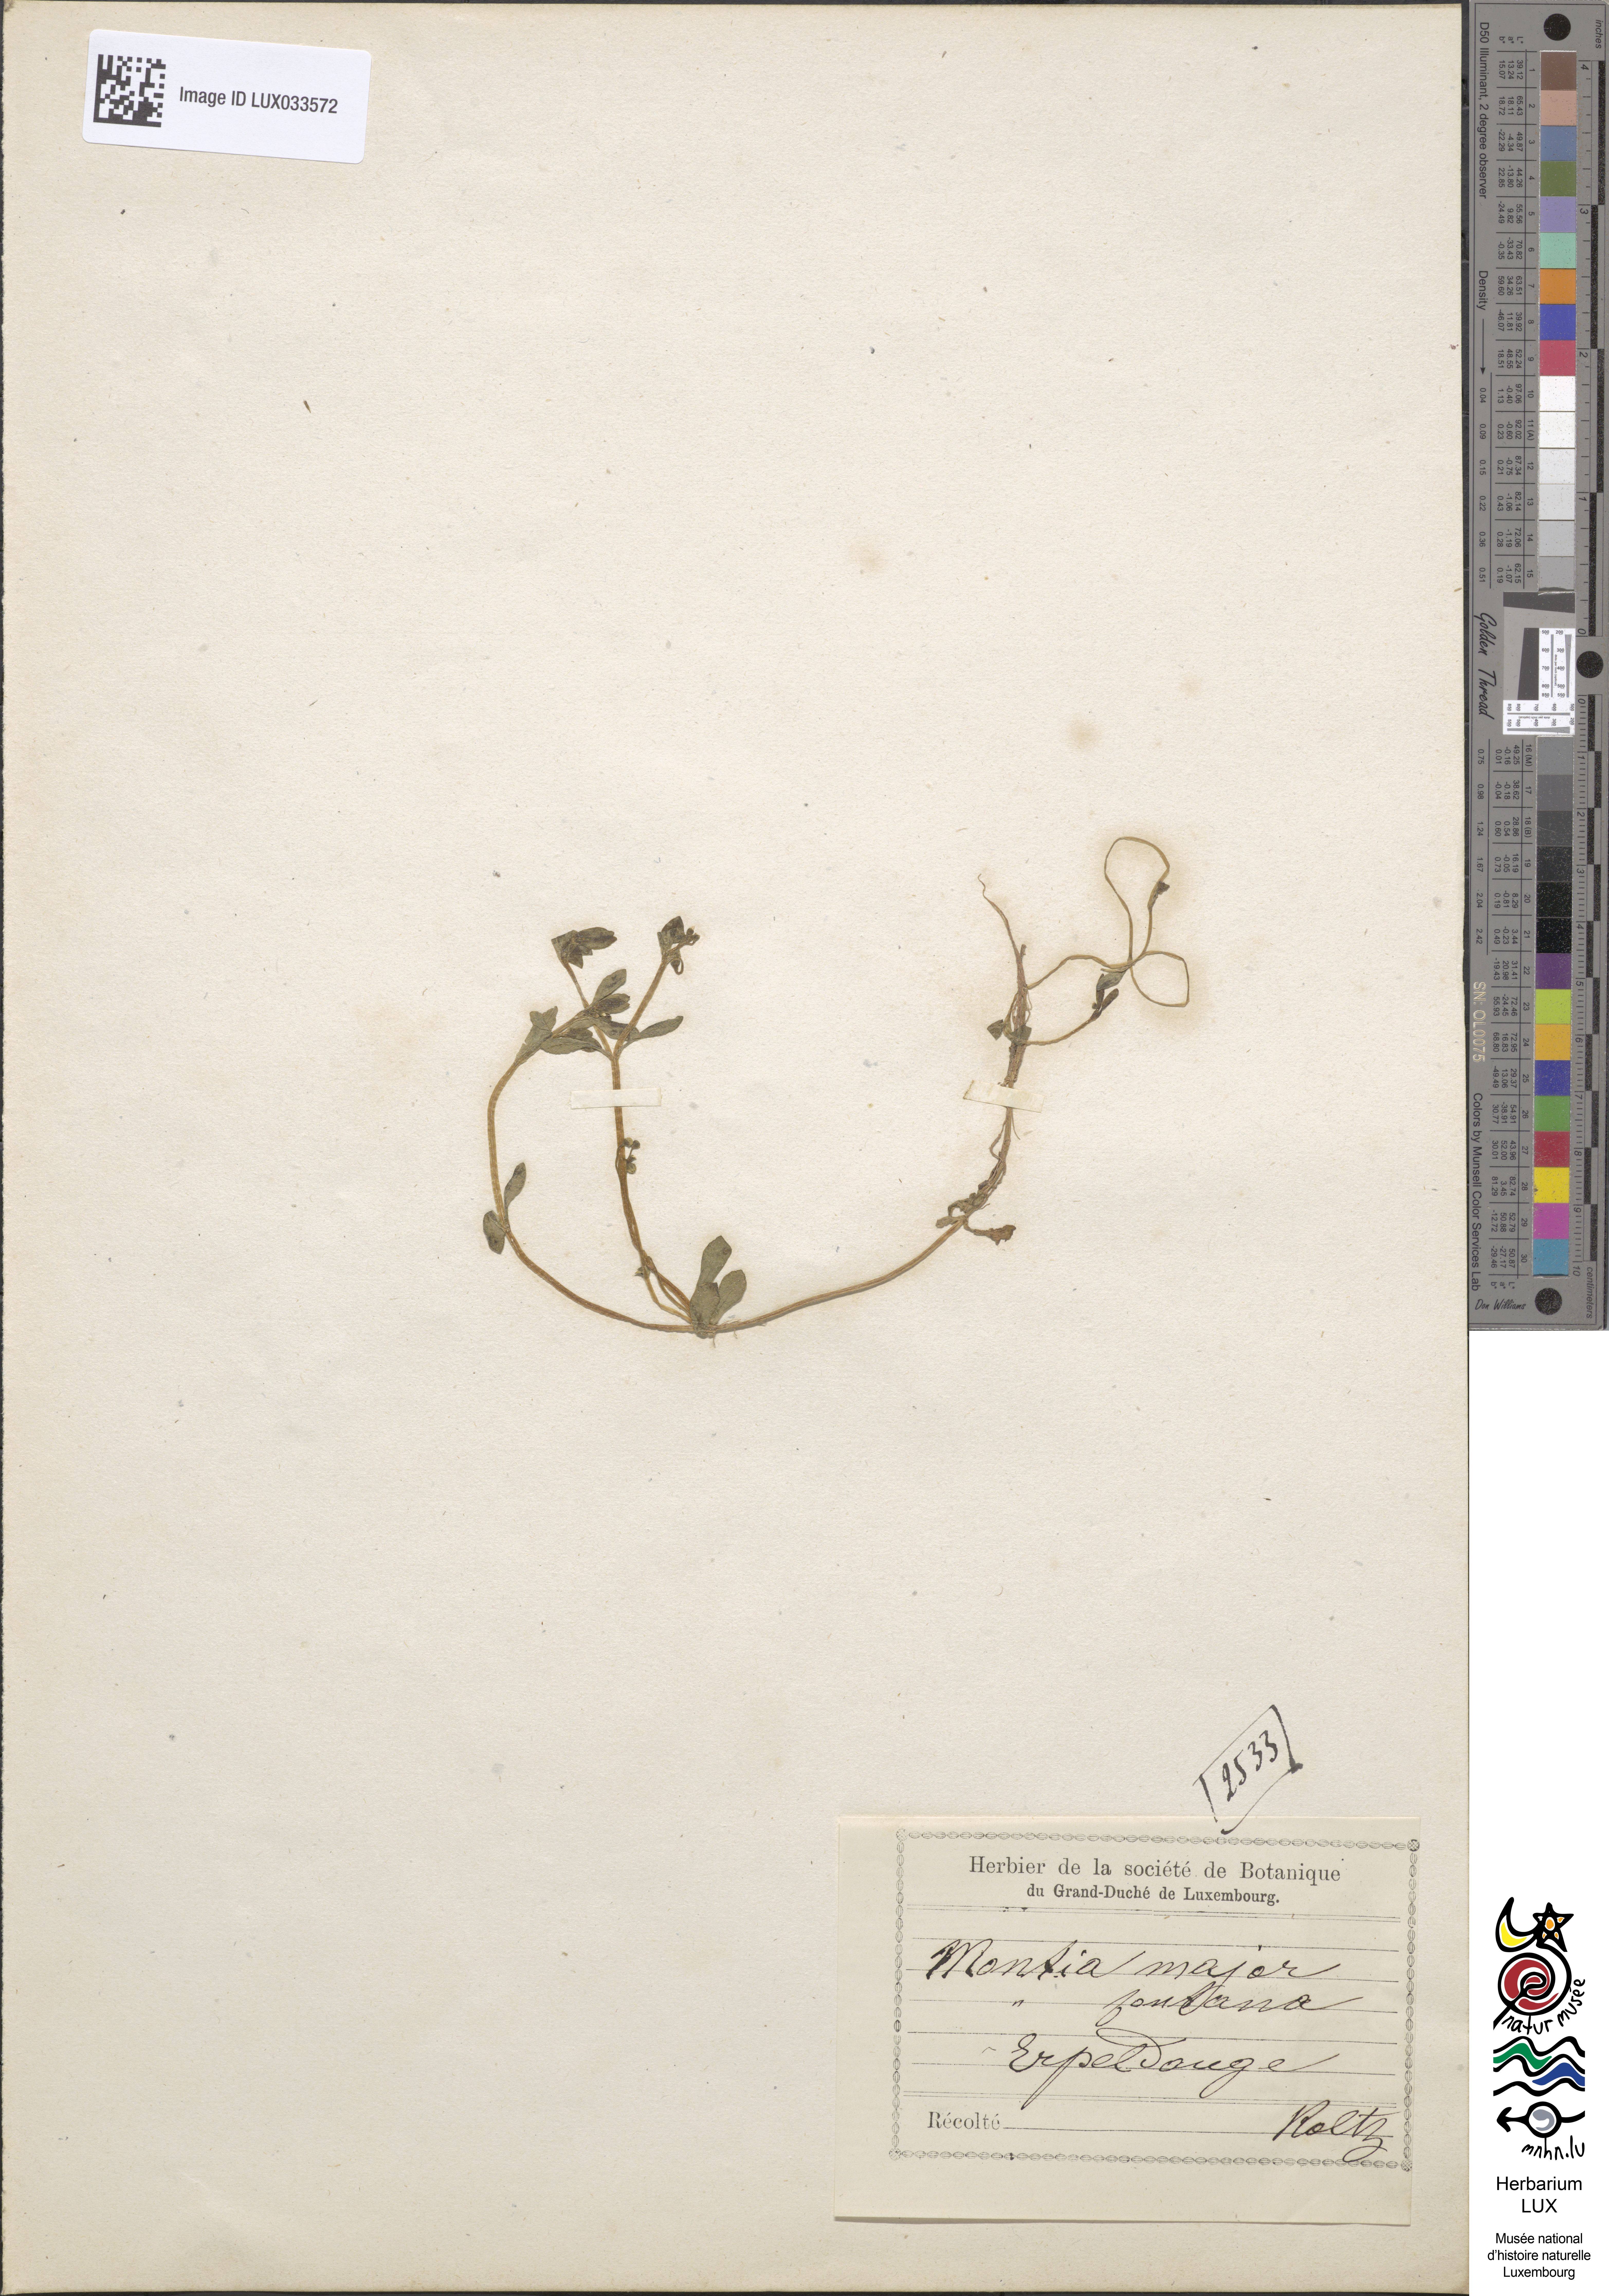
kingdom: Plantae
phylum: Tracheophyta
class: Magnoliopsida
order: Caryophyllales
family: Montiaceae
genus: Montia
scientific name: Montia fontana
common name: Blinks
